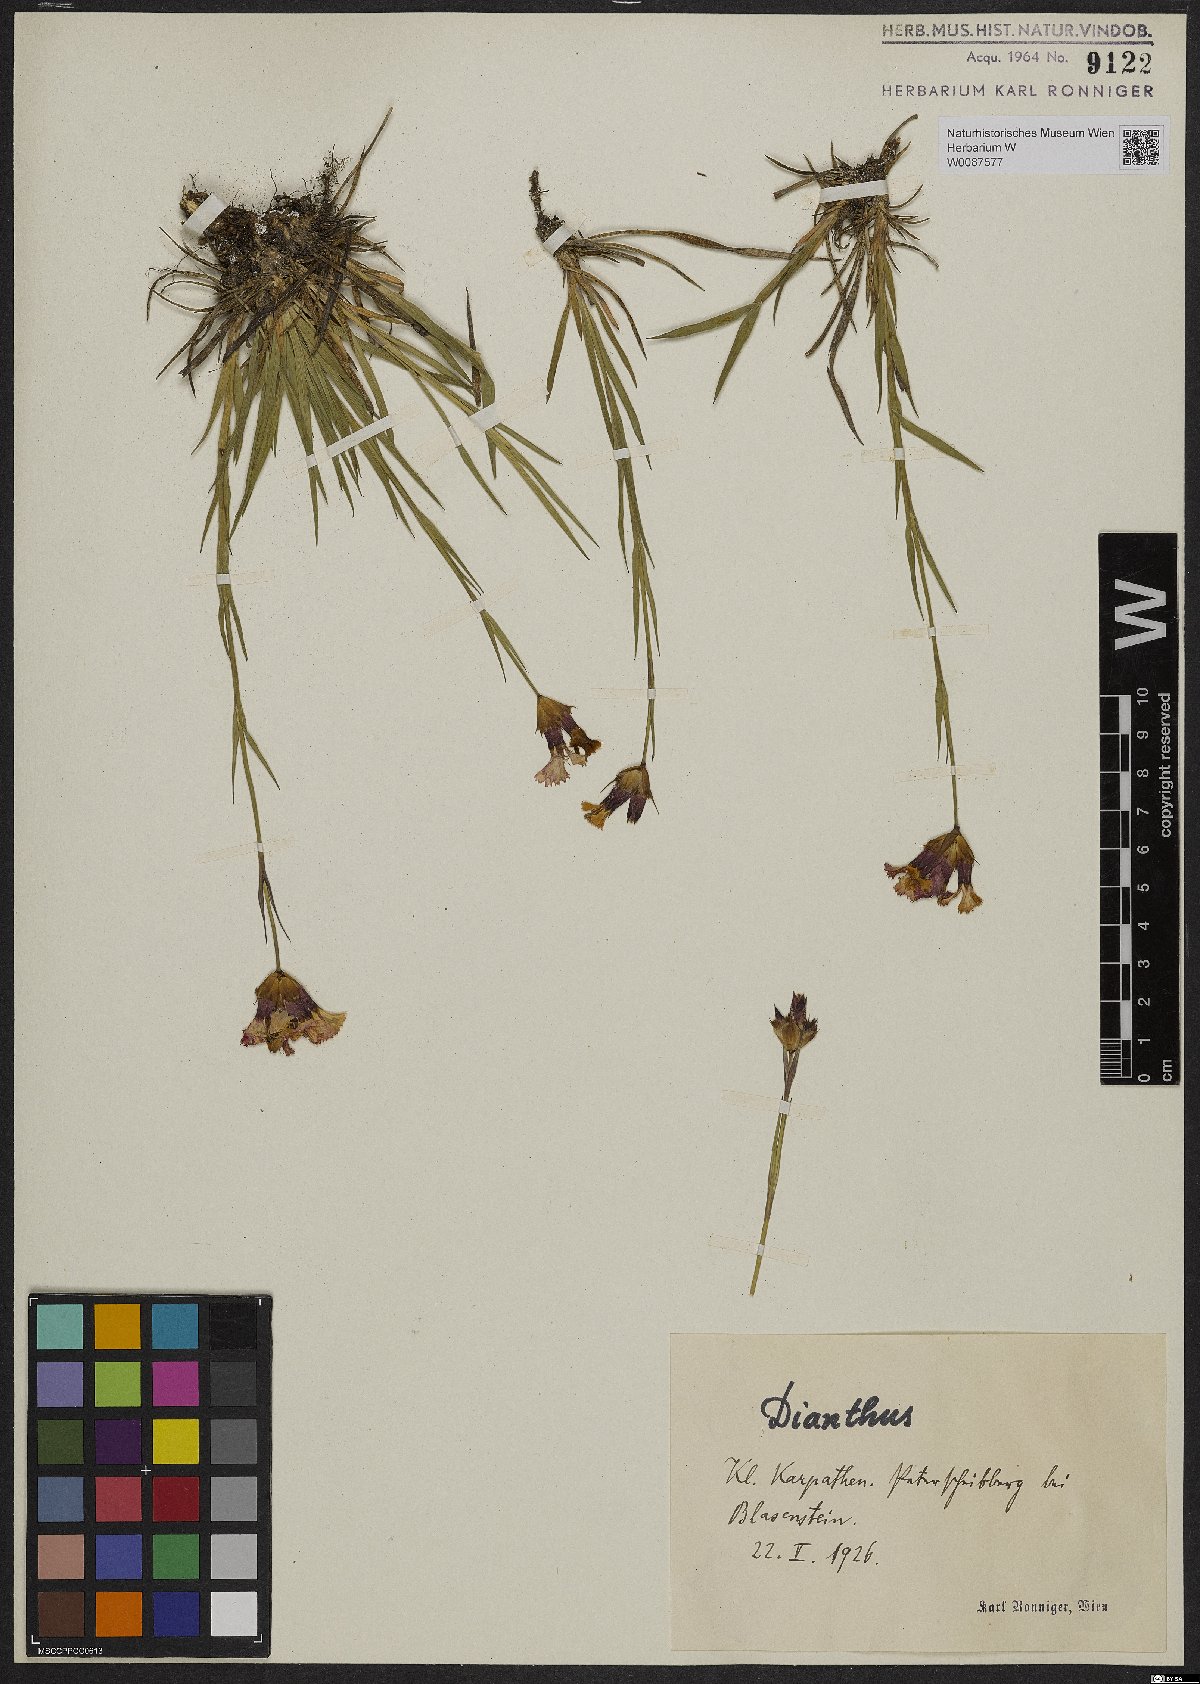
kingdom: Plantae
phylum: Tracheophyta
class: Magnoliopsida
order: Caryophyllales
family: Caryophyllaceae
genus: Dianthus
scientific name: Dianthus
